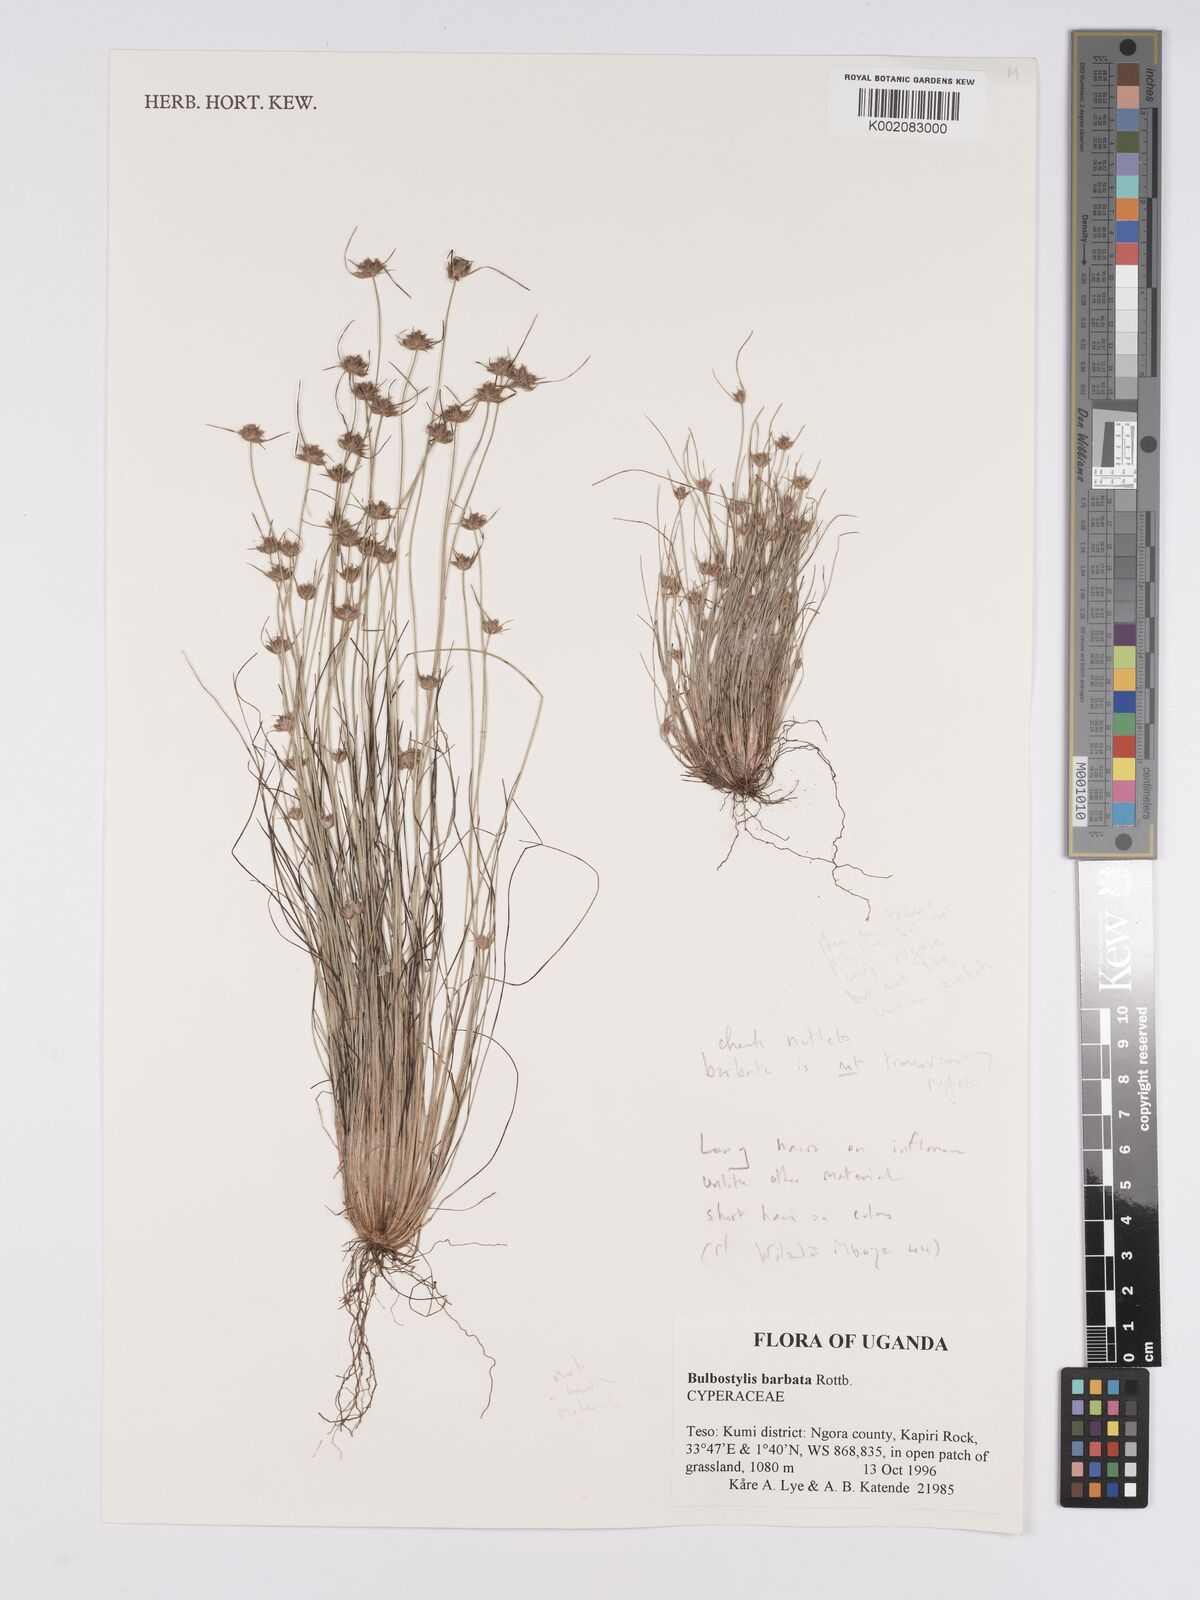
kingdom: Plantae
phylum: Tracheophyta
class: Liliopsida
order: Poales
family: Cyperaceae
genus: Bulbostylis
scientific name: Bulbostylis hispidula
